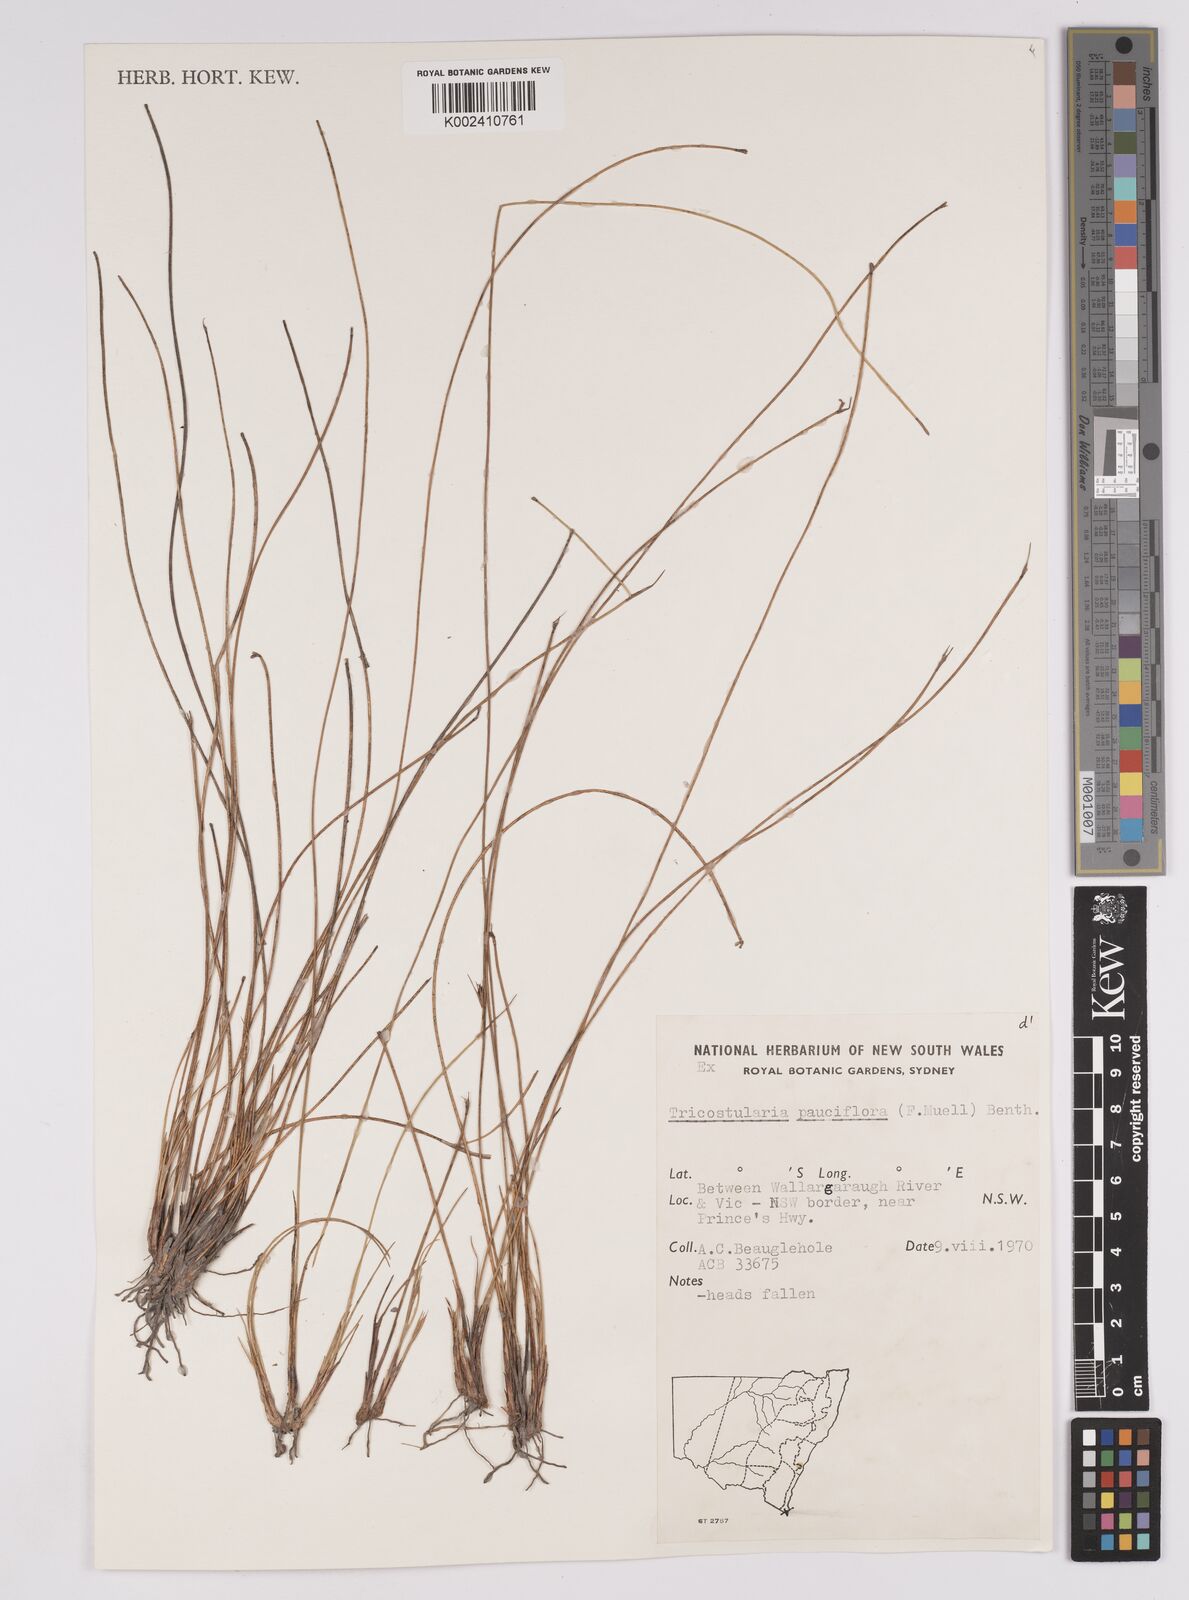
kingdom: Plantae
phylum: Tracheophyta
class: Liliopsida
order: Poales
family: Cyperaceae
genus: Tricostularia
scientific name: Tricostularia pauciflora
